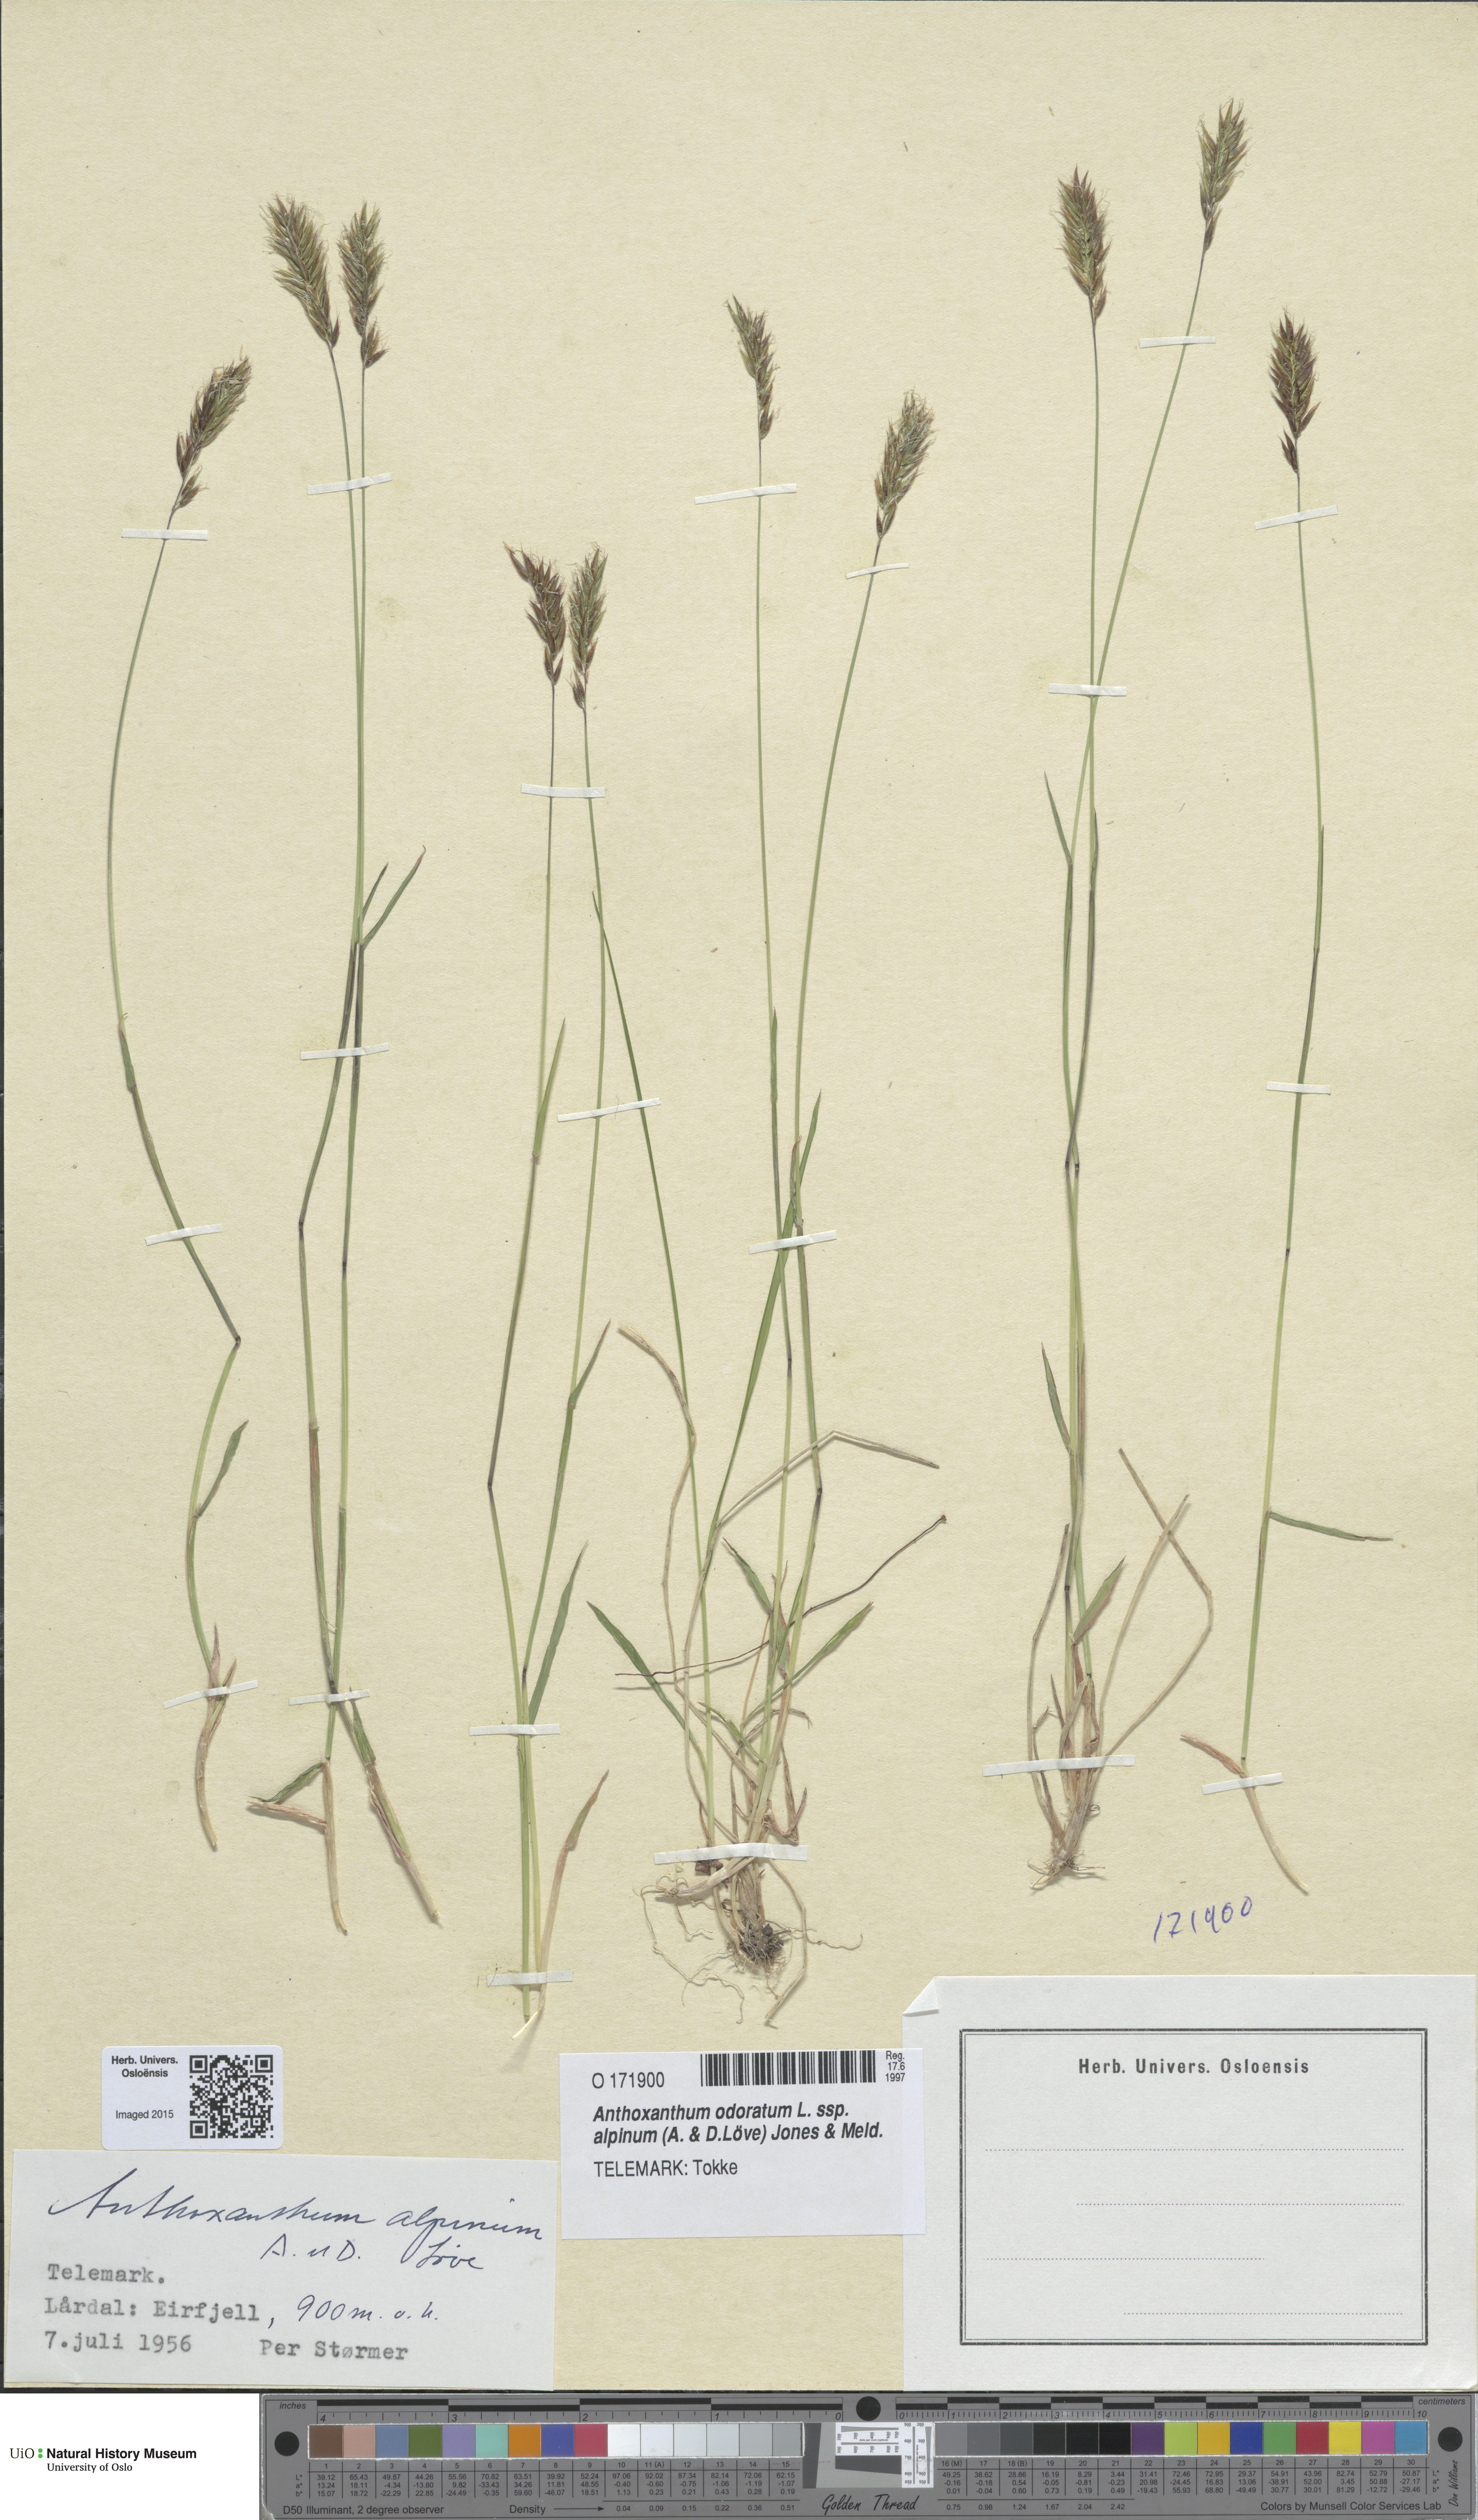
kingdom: Plantae
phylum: Tracheophyta
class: Liliopsida
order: Poales
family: Poaceae
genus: Anthoxanthum
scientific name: Anthoxanthum nipponicum
